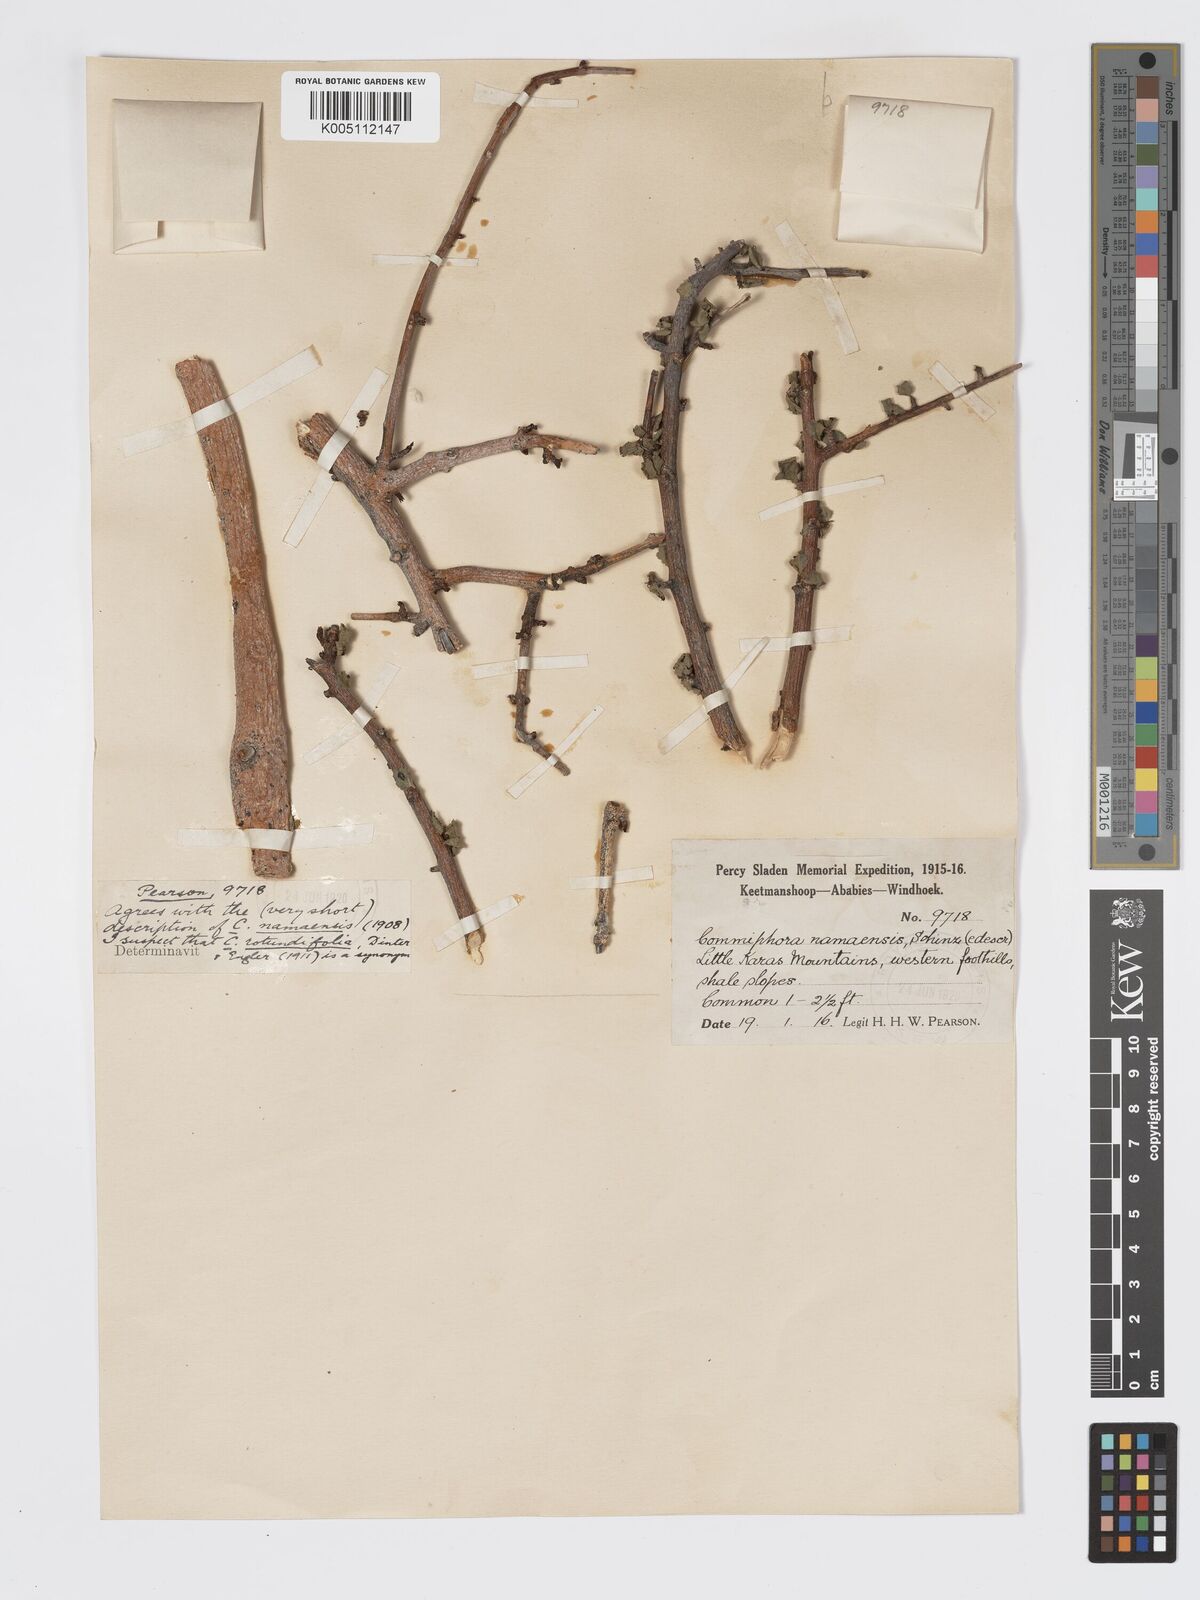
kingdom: Plantae
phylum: Tracheophyta
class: Magnoliopsida
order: Sapindales
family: Burseraceae
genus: Commiphora
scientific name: Commiphora namaensis
